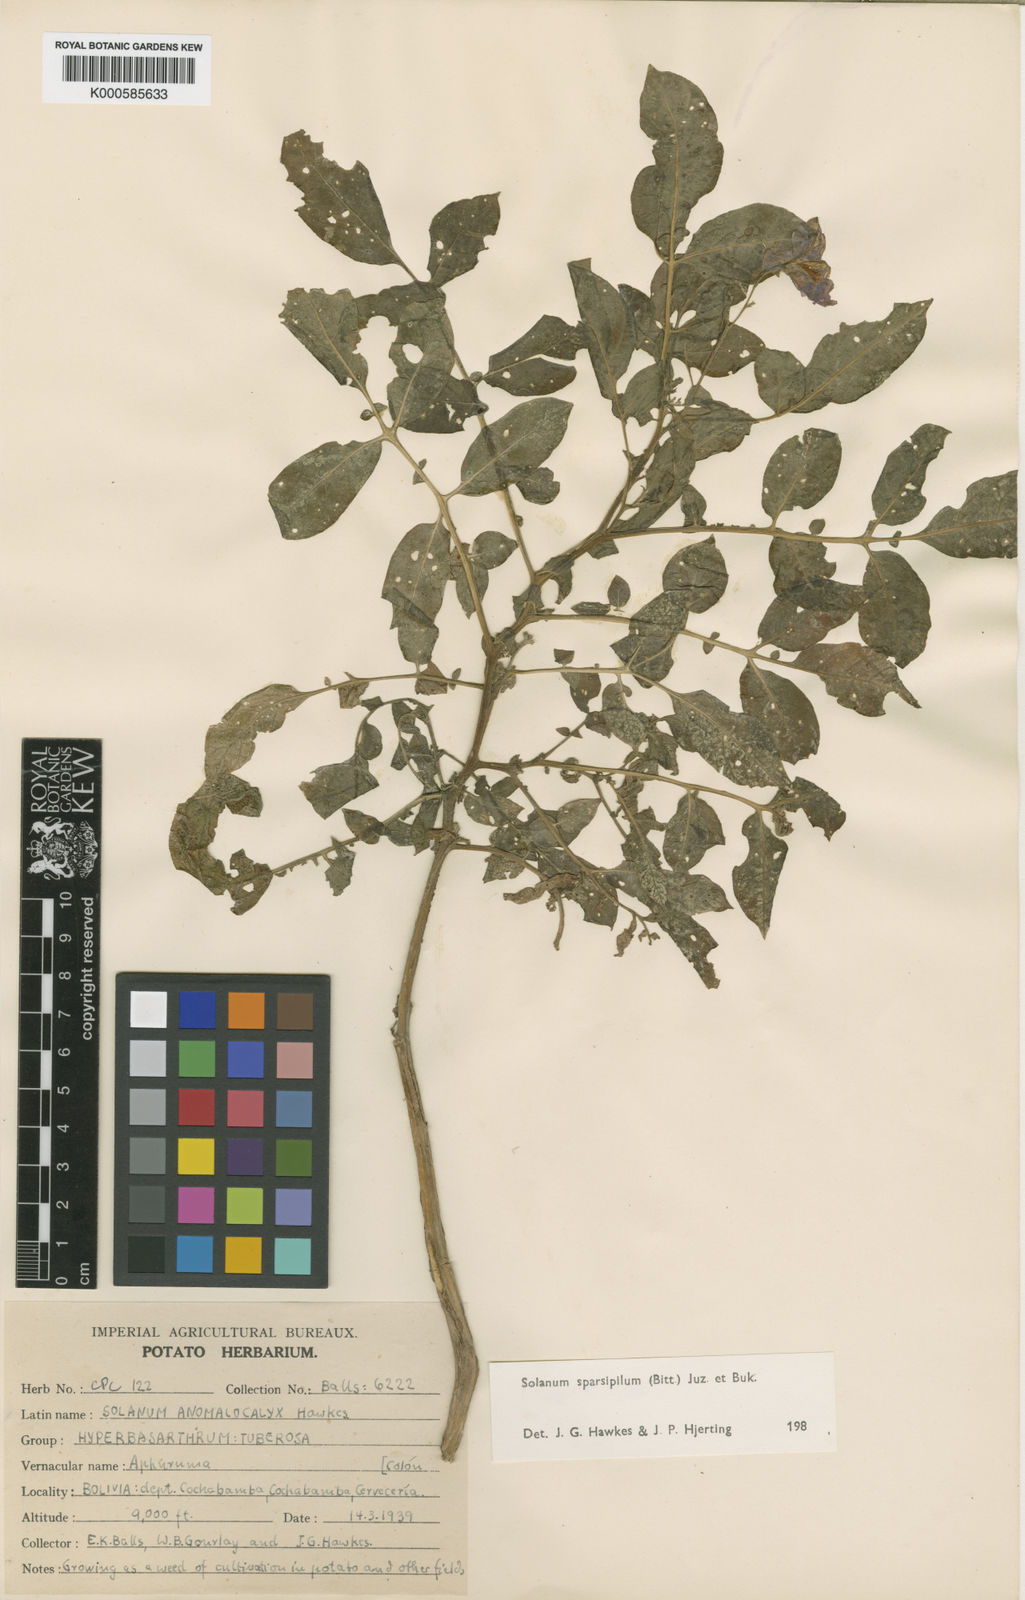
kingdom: Plantae
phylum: Tracheophyta
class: Magnoliopsida
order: Solanales
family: Solanaceae
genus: Solanum
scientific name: Solanum brevicaule
